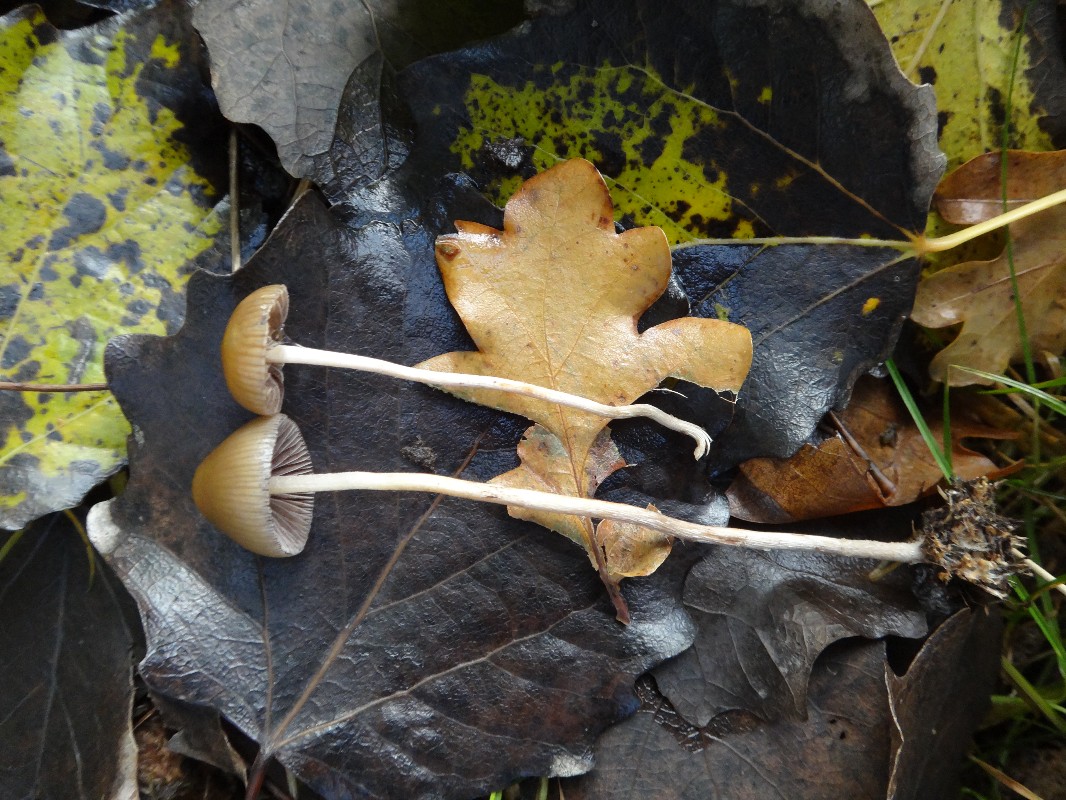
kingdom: Fungi
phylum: Basidiomycota
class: Agaricomycetes
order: Agaricales
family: Hymenogastraceae
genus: Psilocybe
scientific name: Psilocybe fimetaria
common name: prægtig nøgenhat
